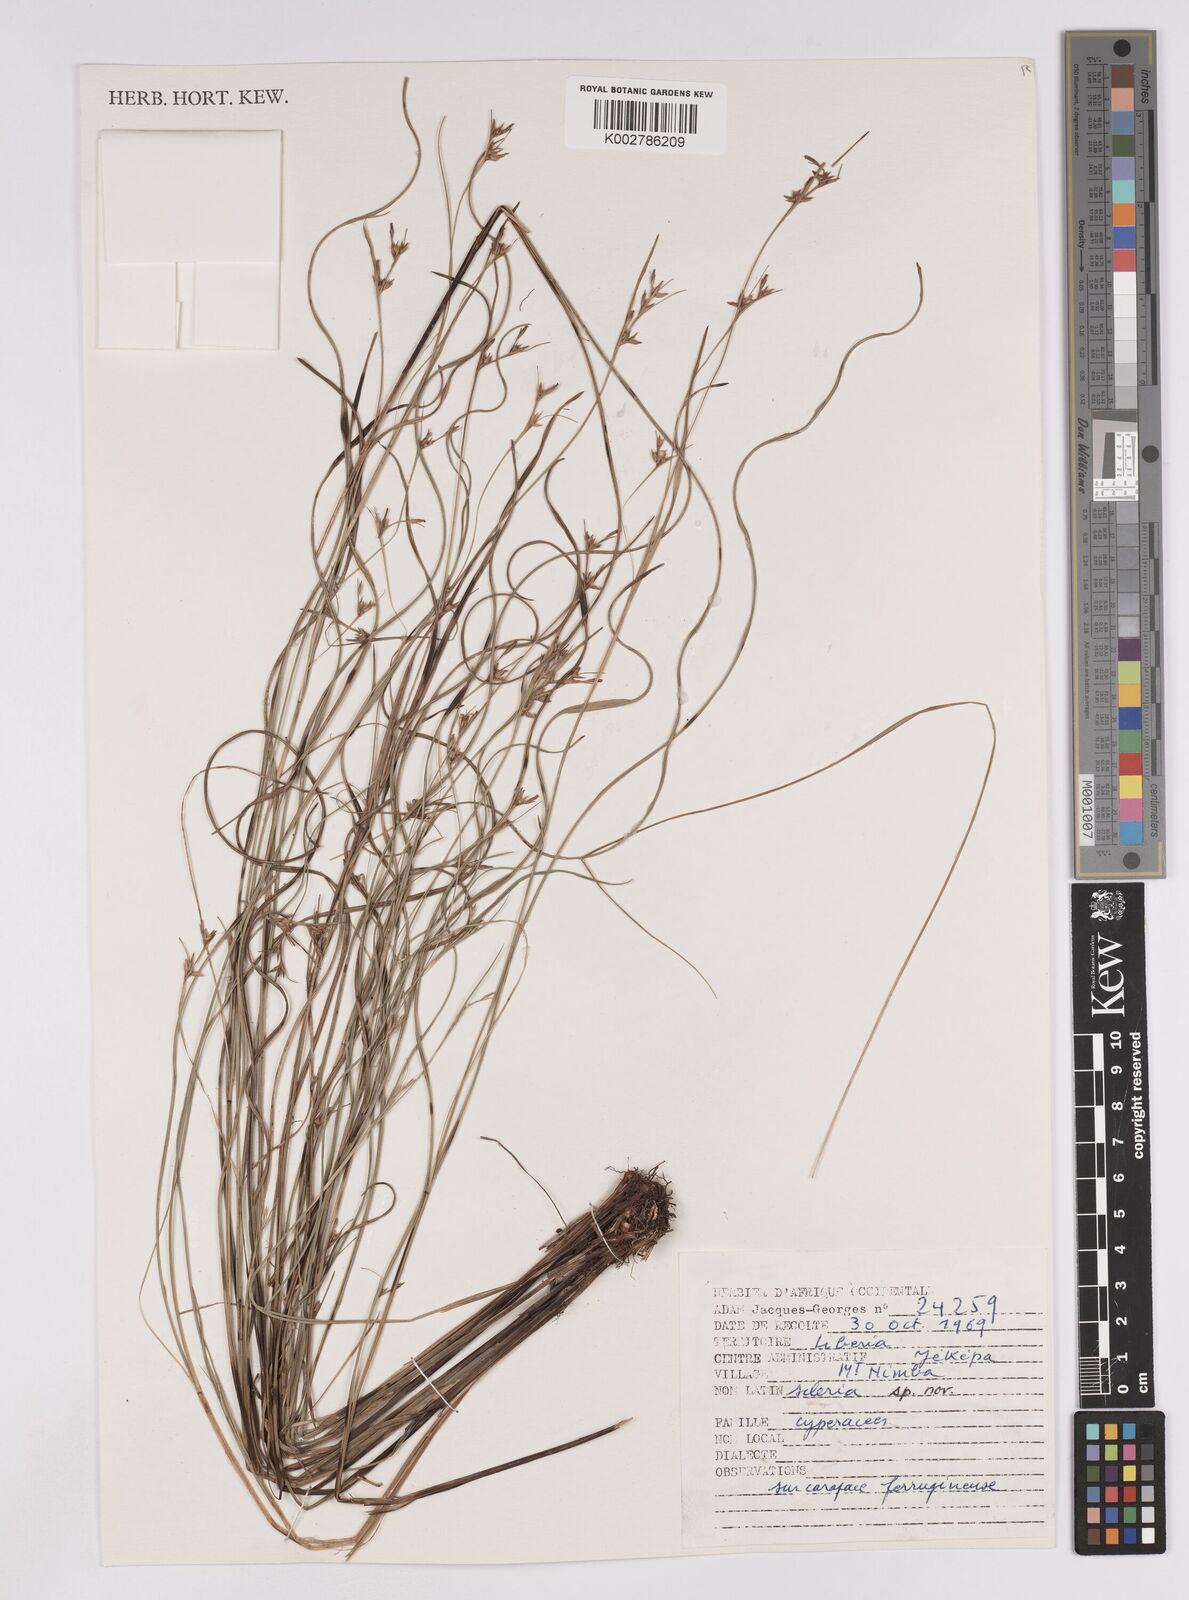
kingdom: Plantae
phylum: Tracheophyta
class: Liliopsida
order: Poales
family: Cyperaceae
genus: Scleria
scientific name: Scleria
